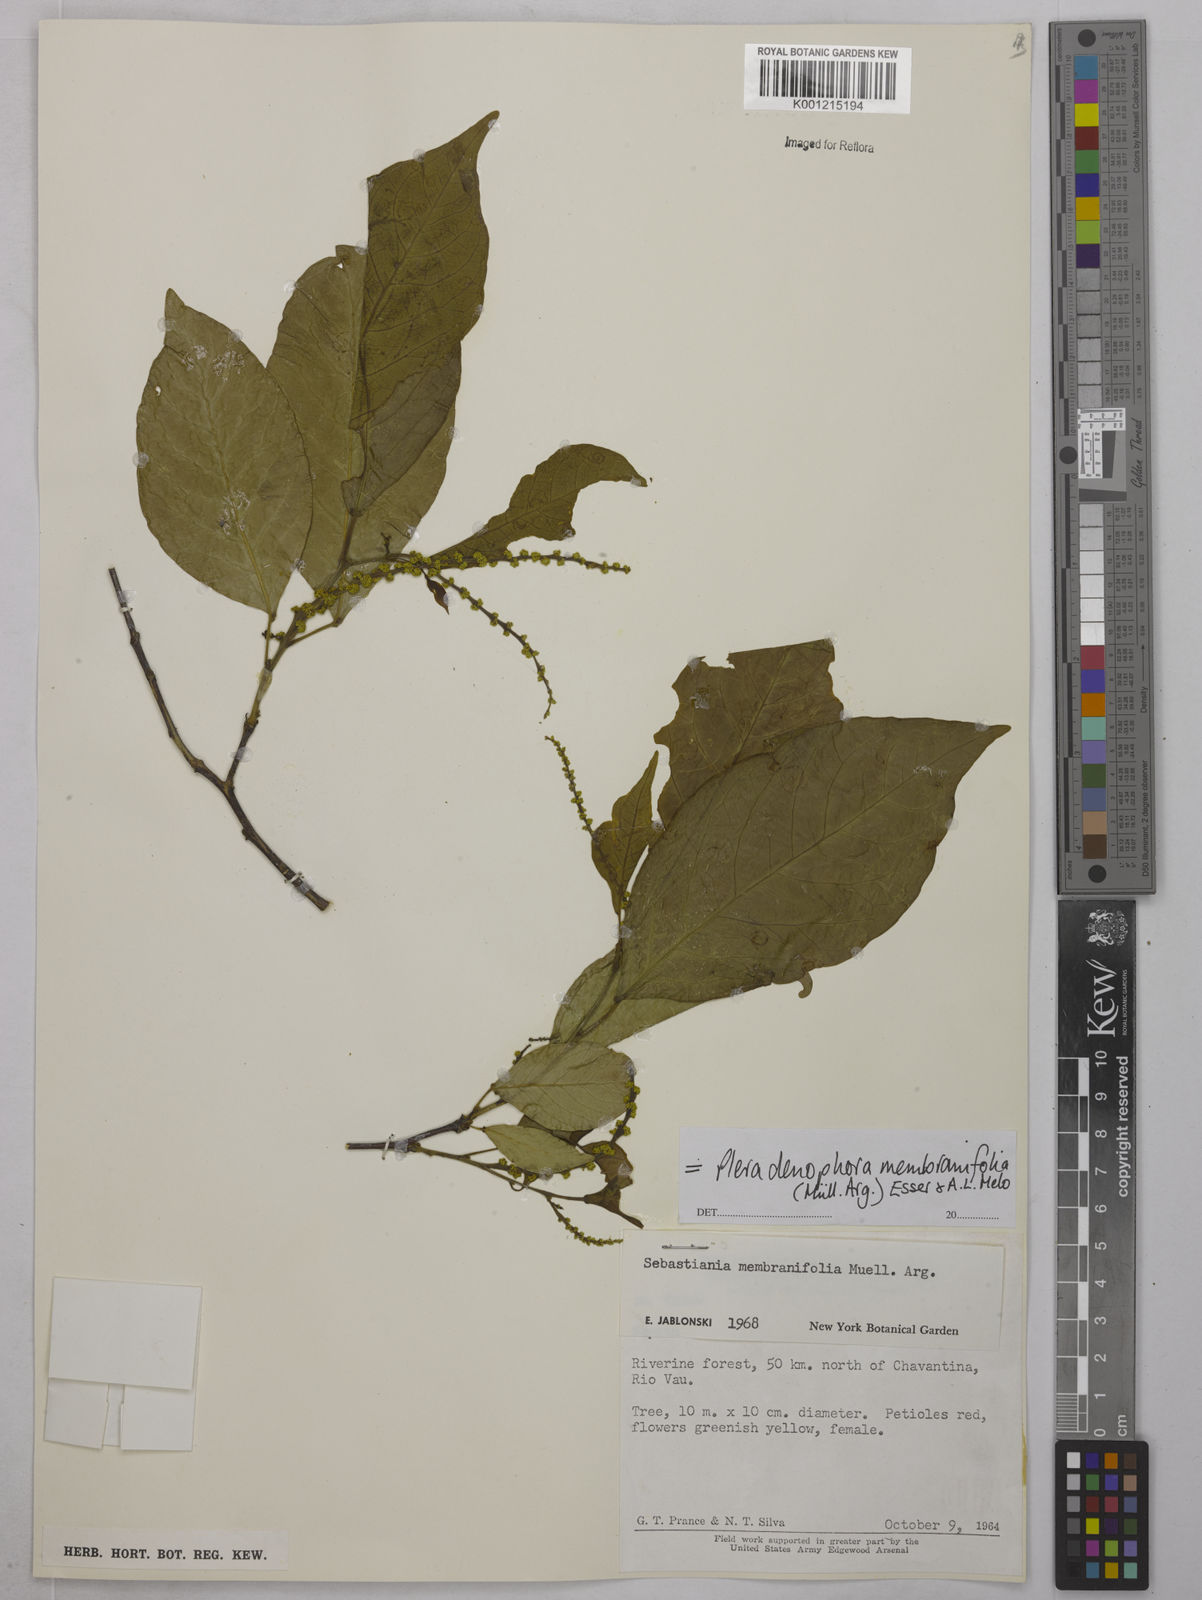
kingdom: Plantae
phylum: Tracheophyta
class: Magnoliopsida
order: Malpighiales
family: Euphorbiaceae
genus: Pleradenophora
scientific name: Pleradenophora
